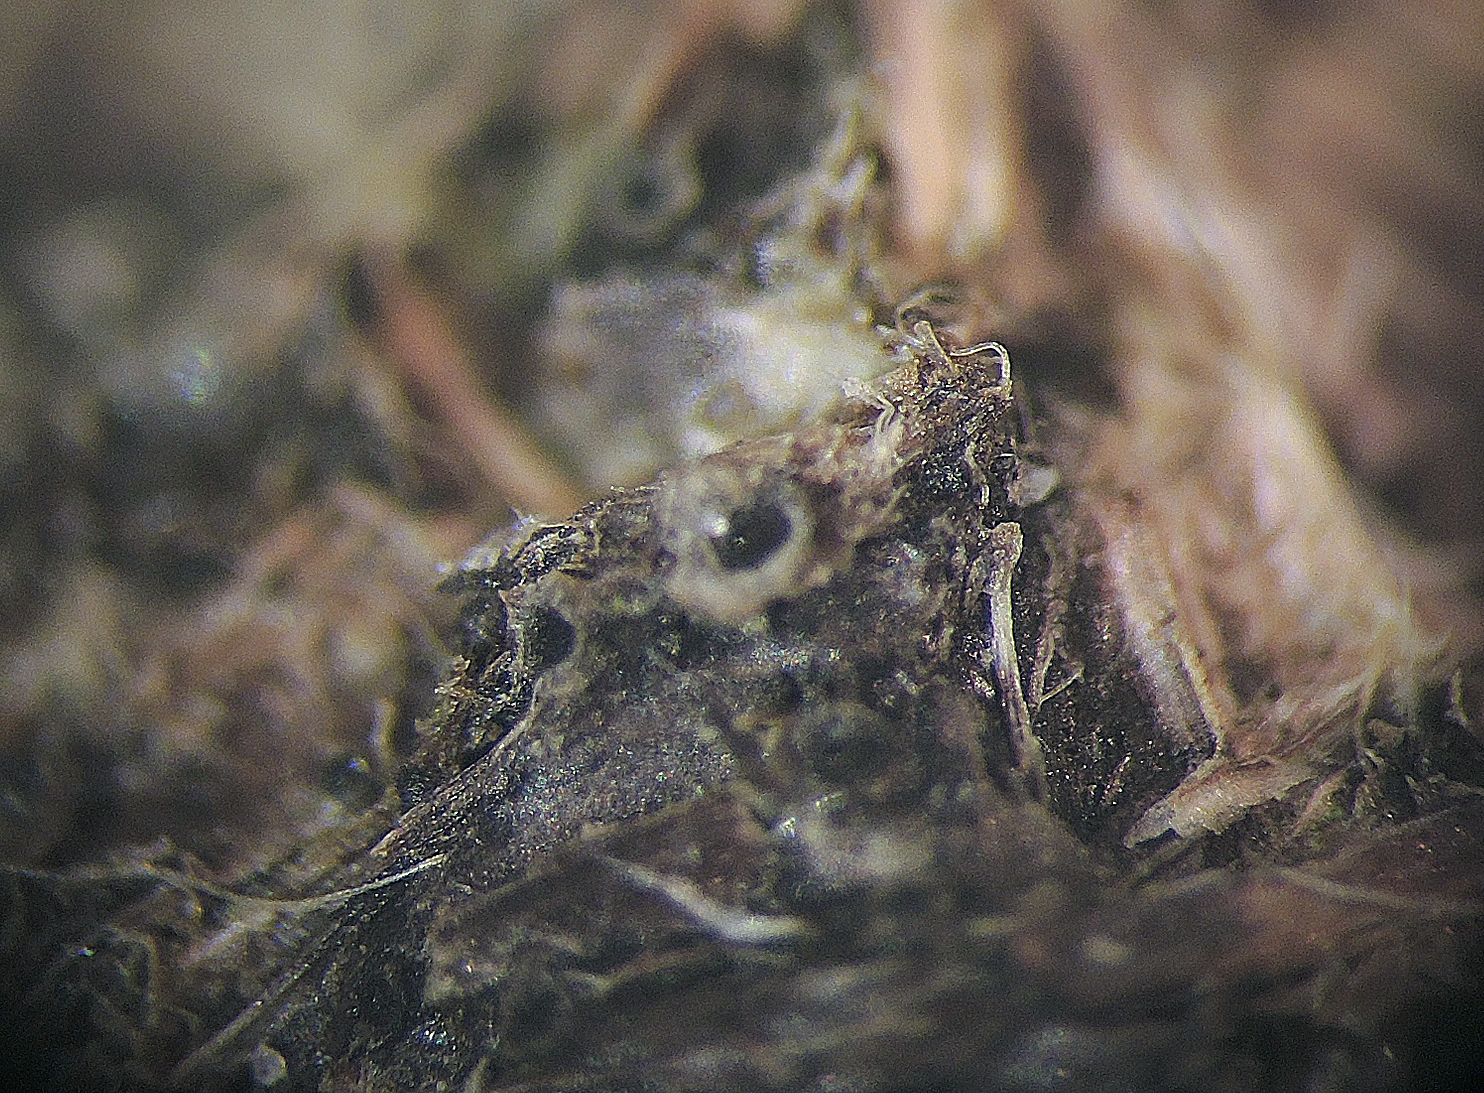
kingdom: Fungi
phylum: Ascomycota
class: Sordariomycetes
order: Xylariales
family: Xylariaceae
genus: Hypocopra
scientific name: Hypocopra brefeldii
